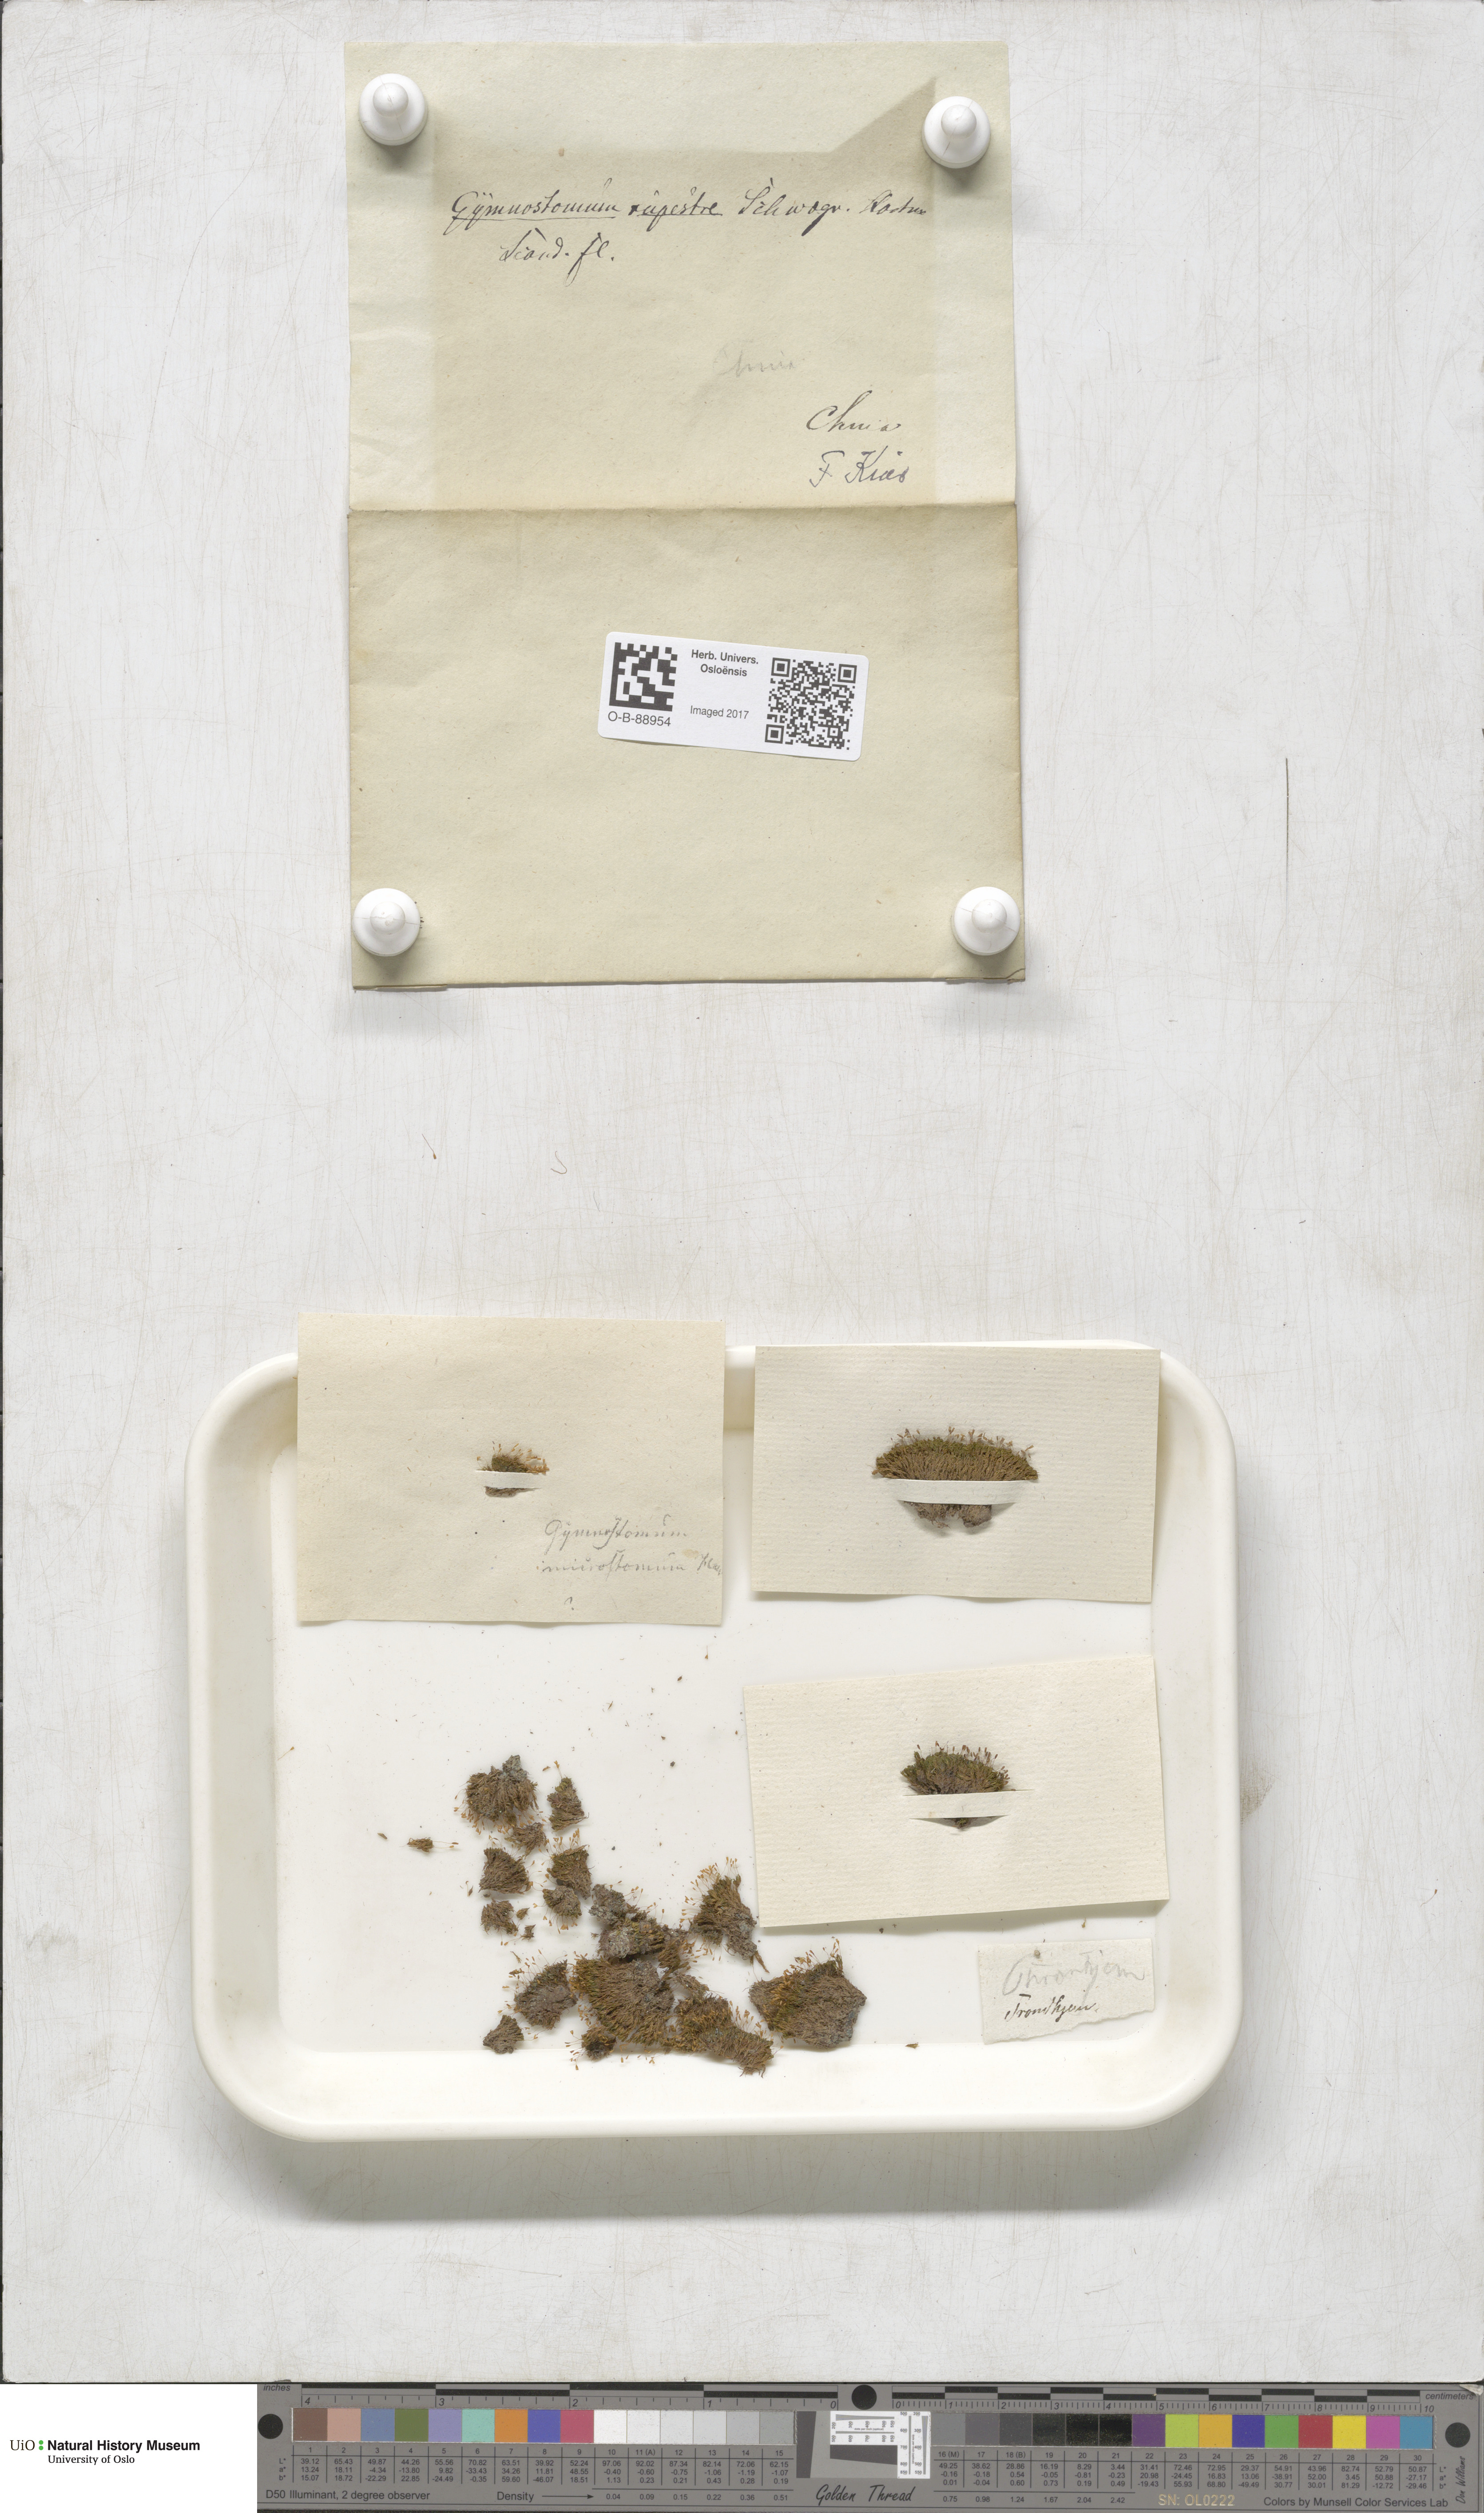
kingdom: Plantae
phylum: Bryophyta
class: Bryopsida
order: Pottiales
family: Pottiaceae
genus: Gymnostomum
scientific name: Gymnostomum aeruginosum
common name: Verdigris tufa-moss
